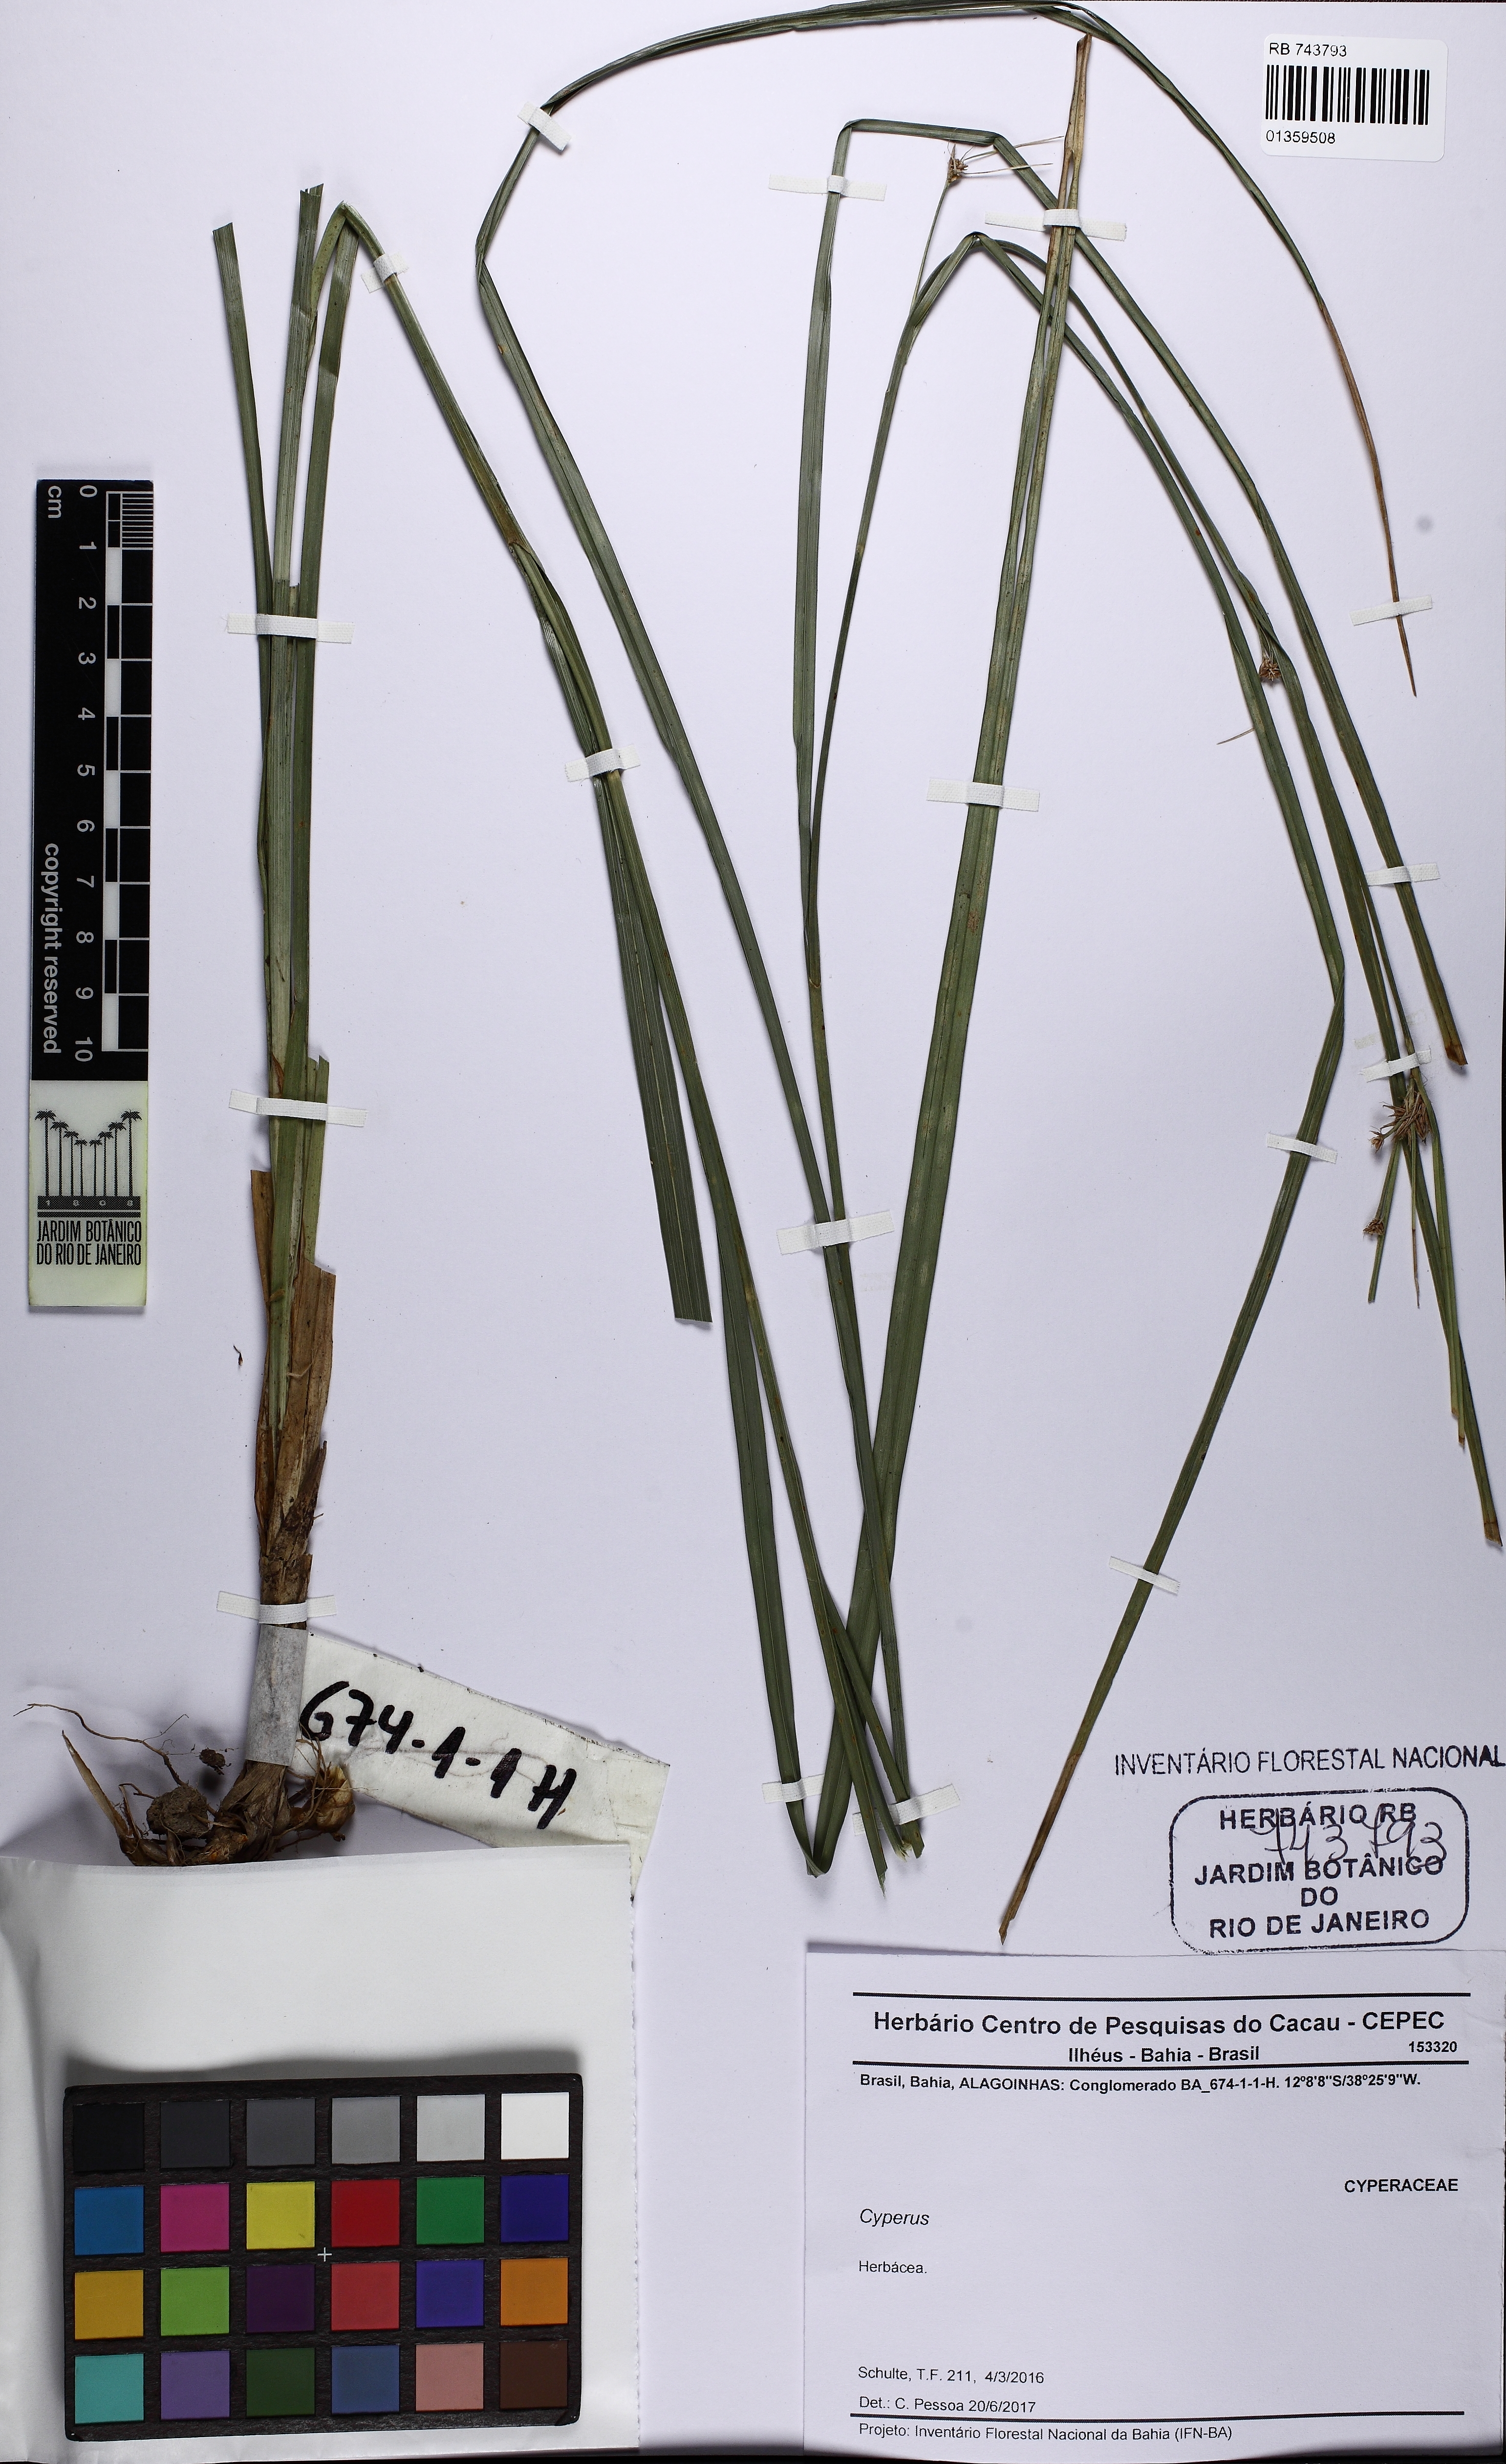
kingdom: Plantae
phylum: Tracheophyta
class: Liliopsida
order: Poales
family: Cyperaceae
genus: Cyperus
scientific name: Cyperus
